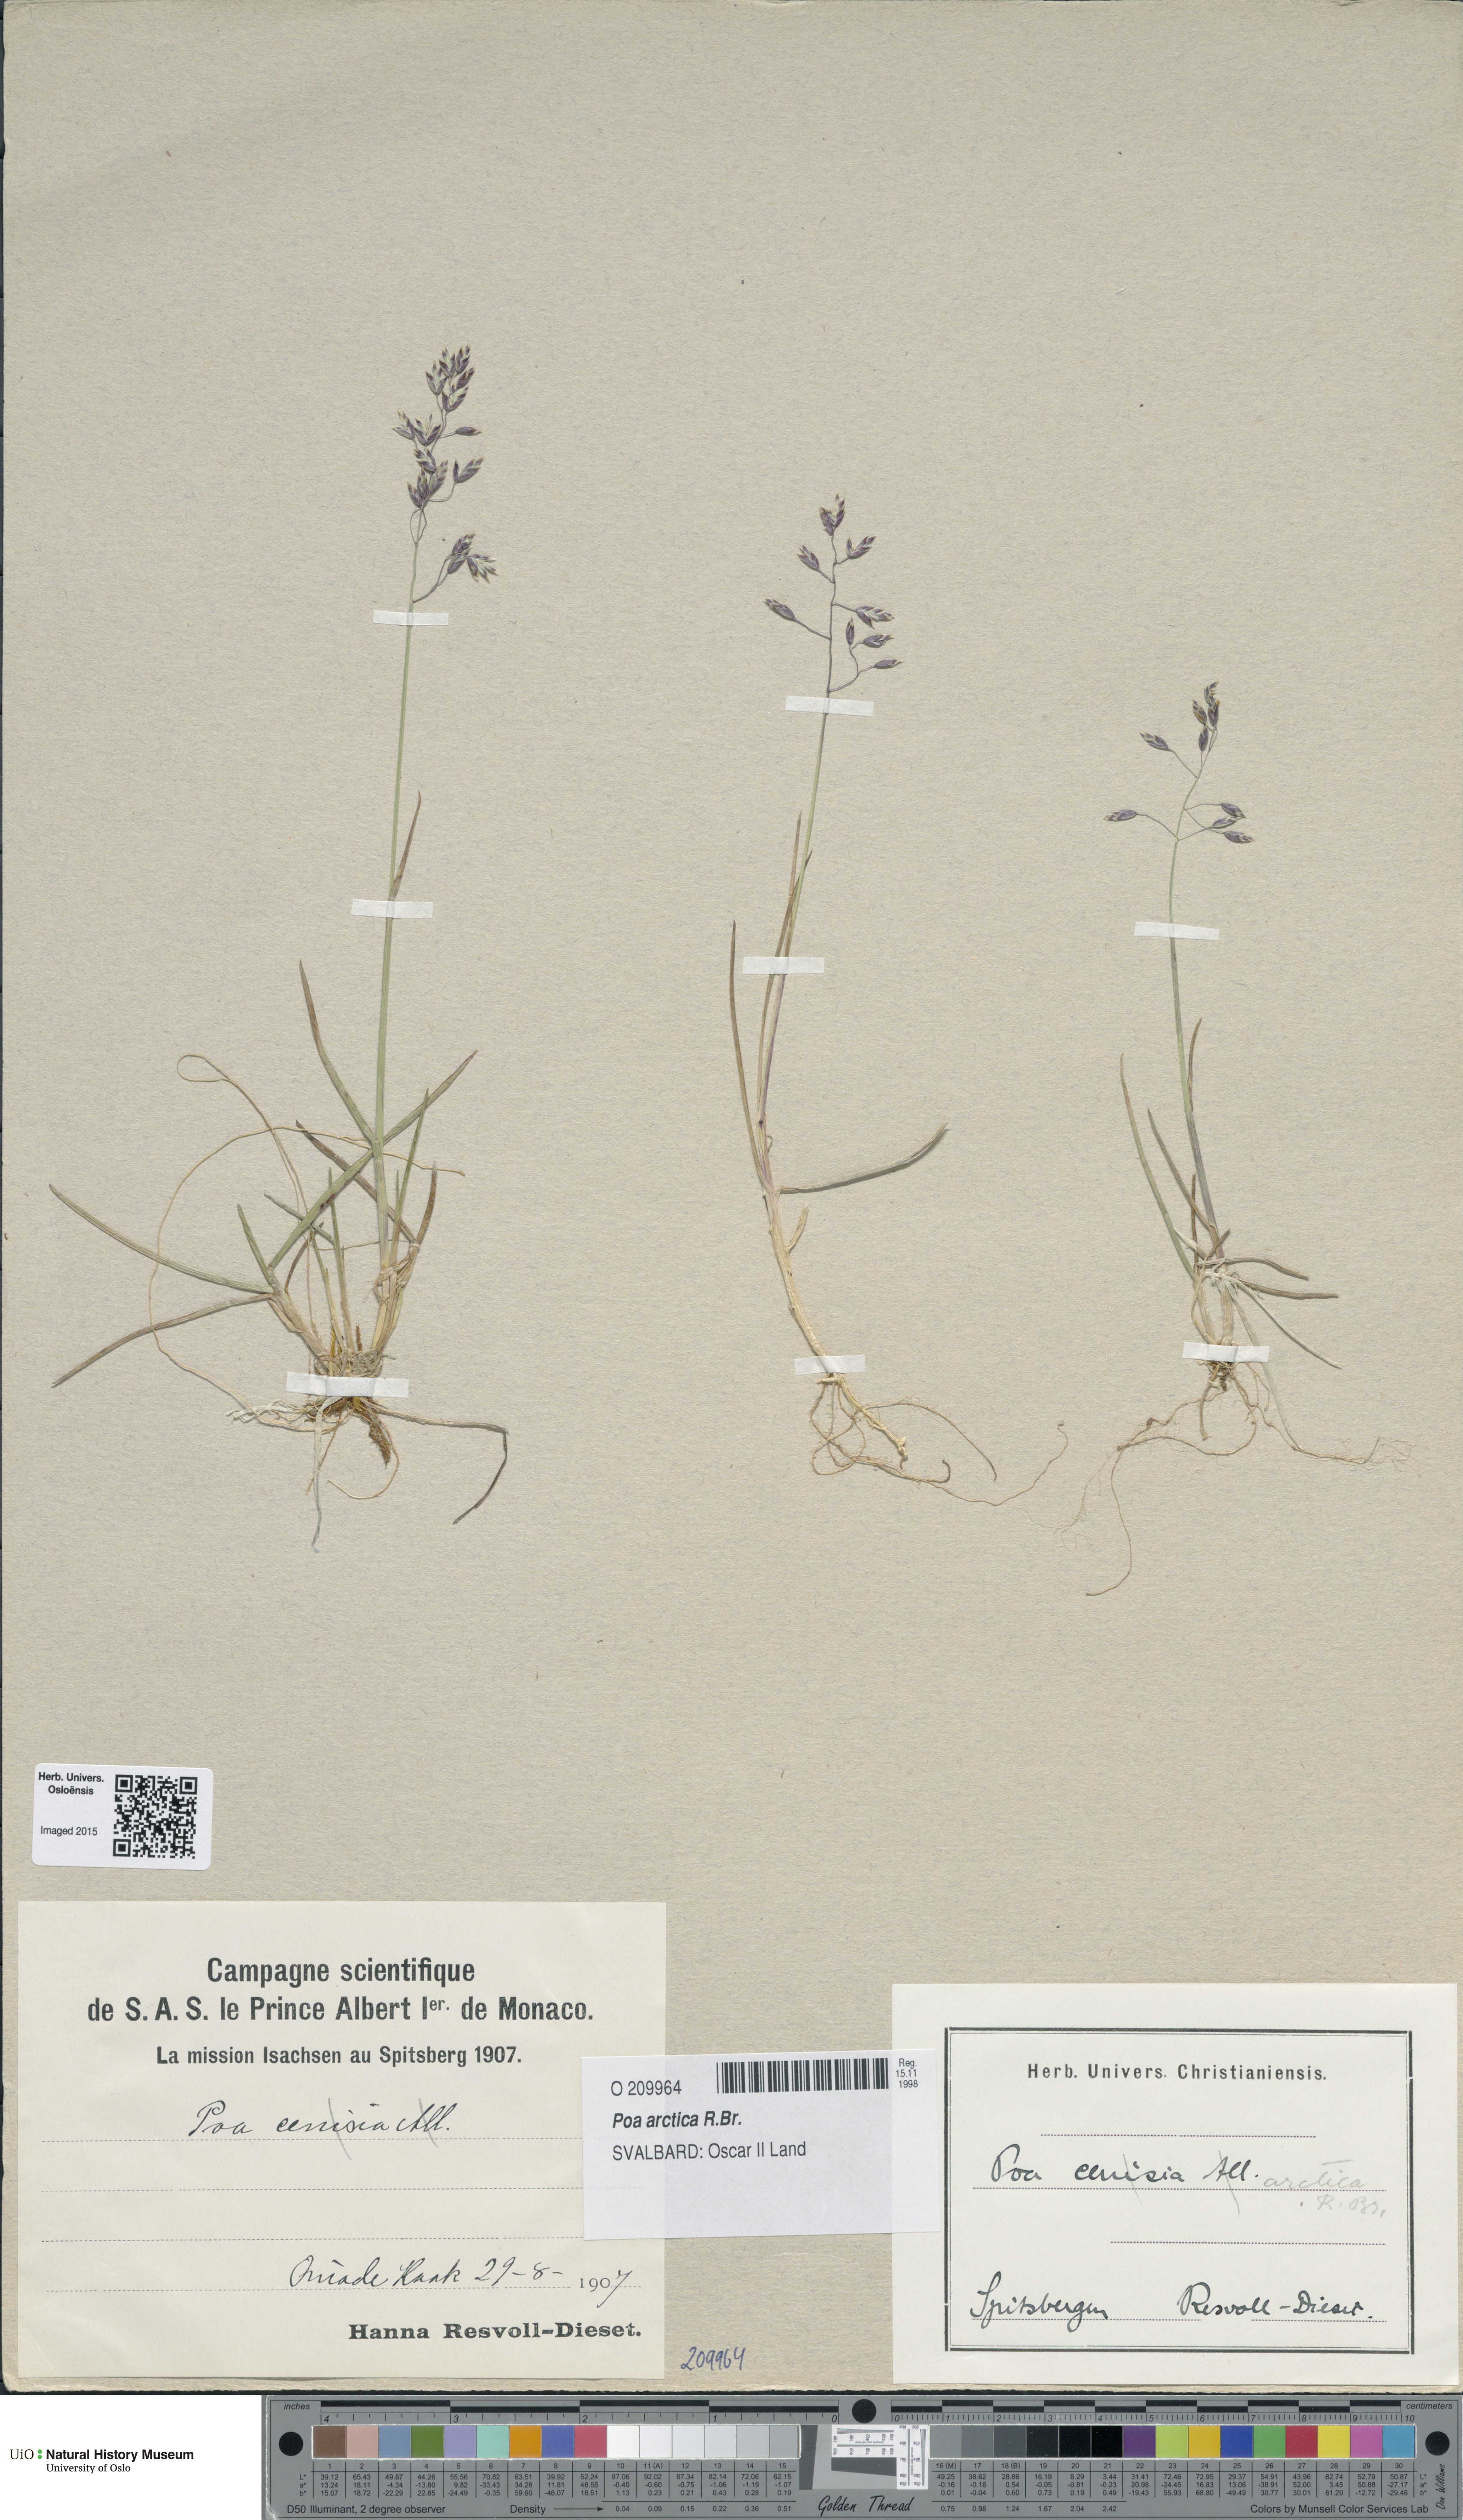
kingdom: Plantae
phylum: Tracheophyta
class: Liliopsida
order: Poales
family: Poaceae
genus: Poa
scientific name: Poa arctica
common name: Arctic bluegrass
